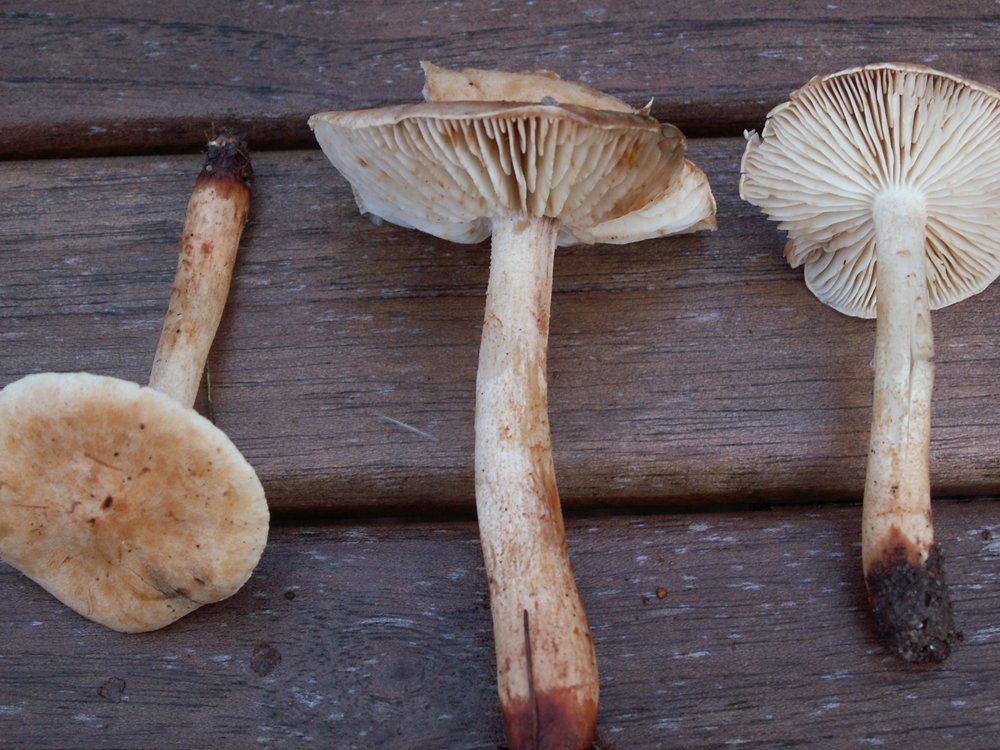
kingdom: Fungi
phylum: Basidiomycota
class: Agaricomycetes
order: Agaricales
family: Tricholomataceae
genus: Tricholoma
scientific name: Tricholoma psammopus
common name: grynstokket ridderhat
